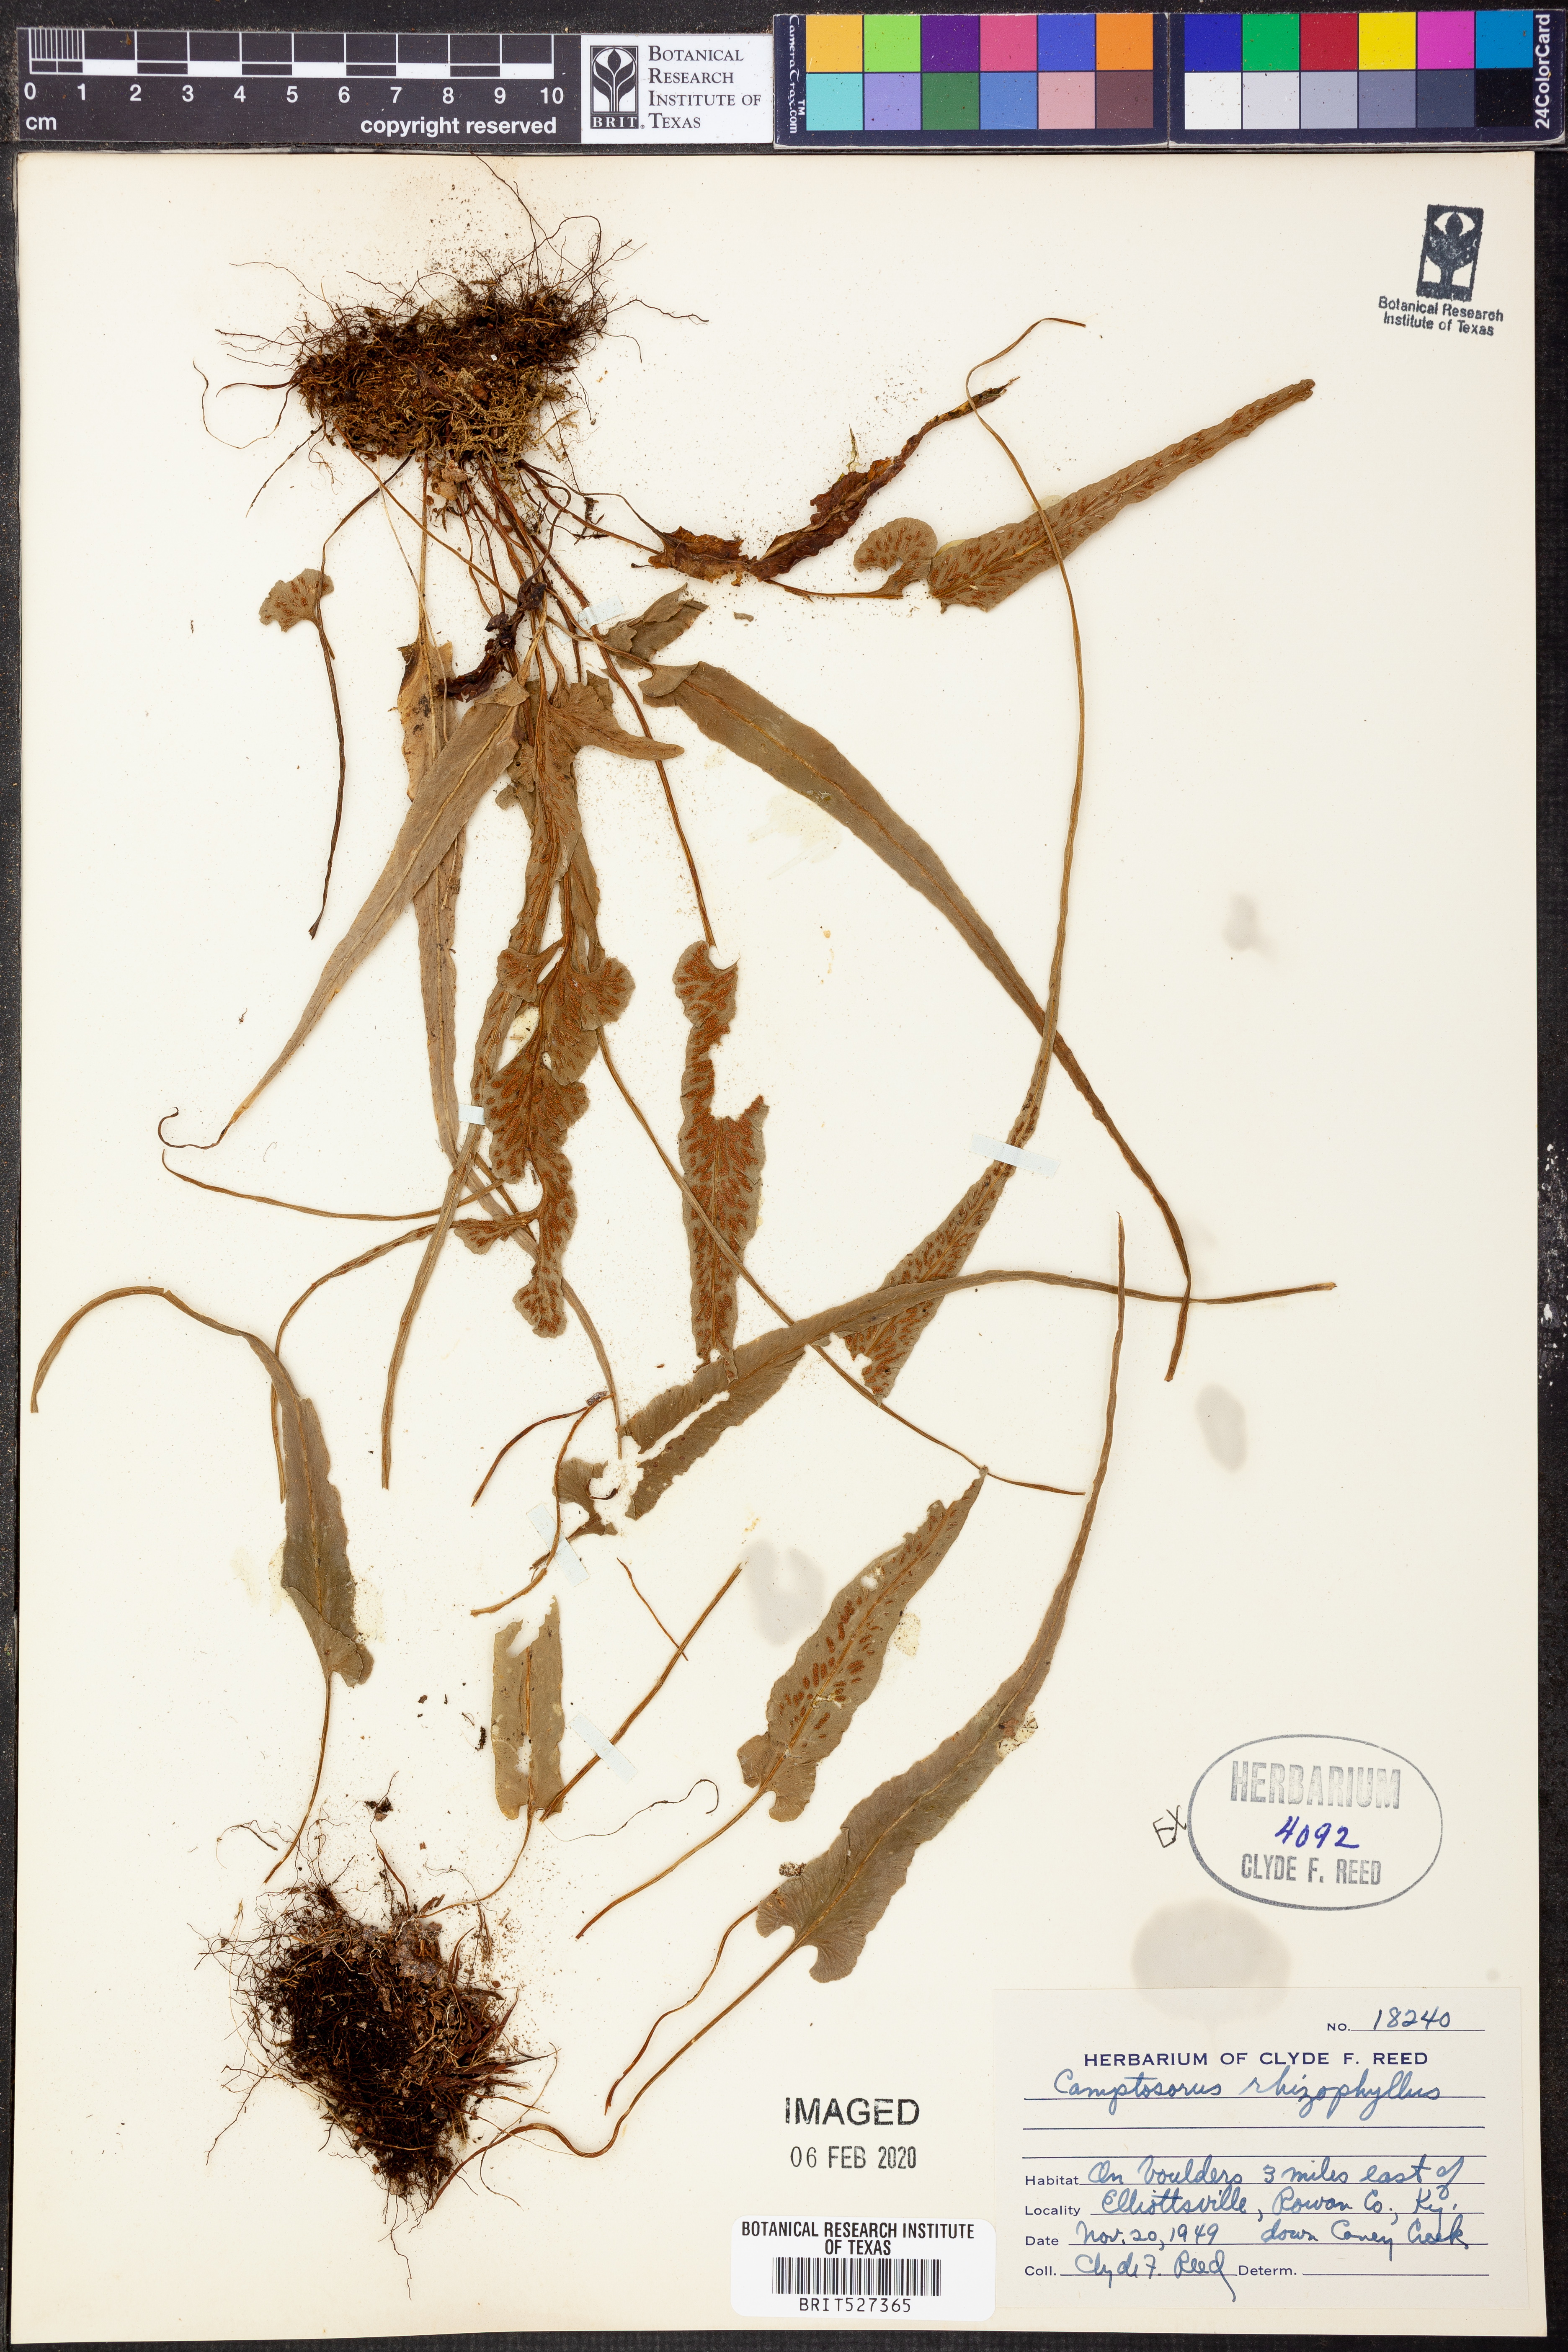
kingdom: Plantae
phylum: Tracheophyta
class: Polypodiopsida
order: Polypodiales
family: Aspleniaceae
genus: Asplenium
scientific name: Asplenium rhizophyllum
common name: Walking fern
